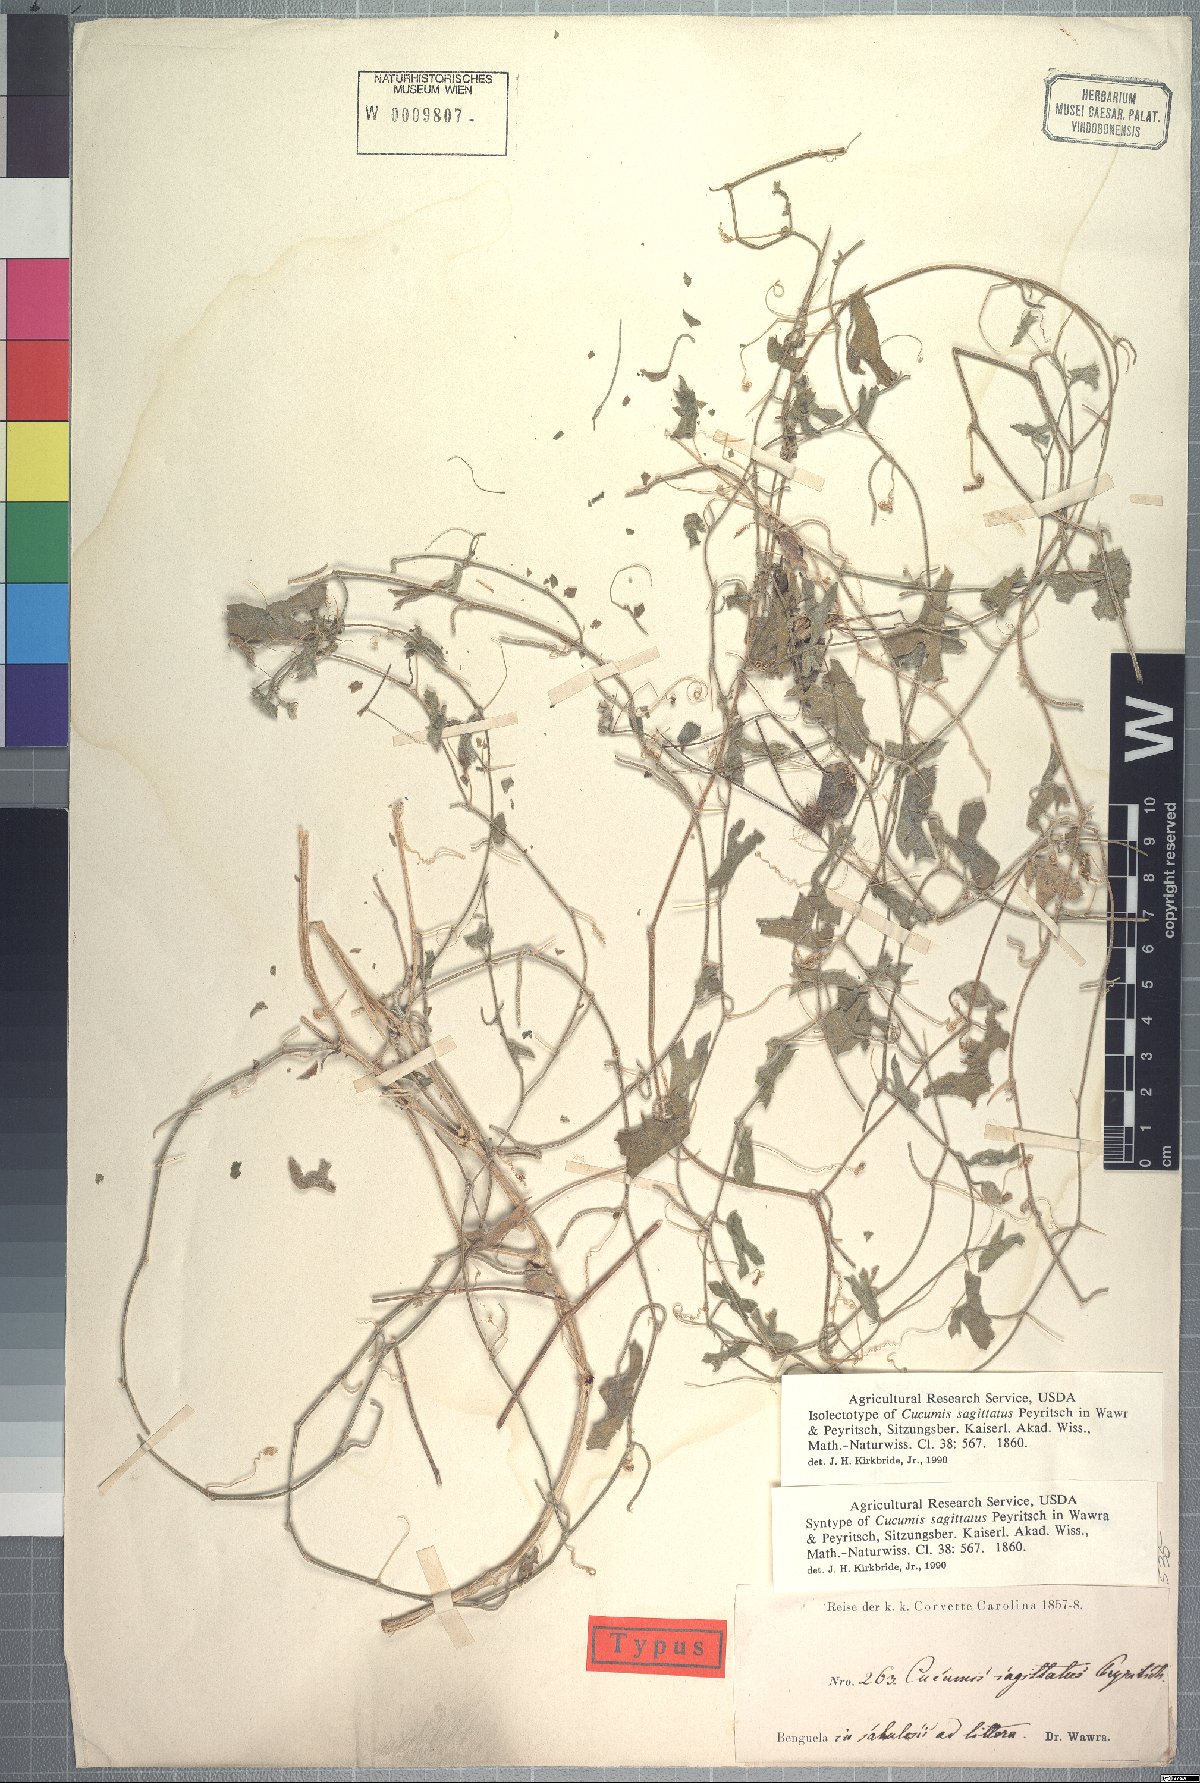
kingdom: Plantae
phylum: Tracheophyta
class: Magnoliopsida
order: Cucurbitales
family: Cucurbitaceae
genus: Cucumis
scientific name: Cucumis sagittatus
